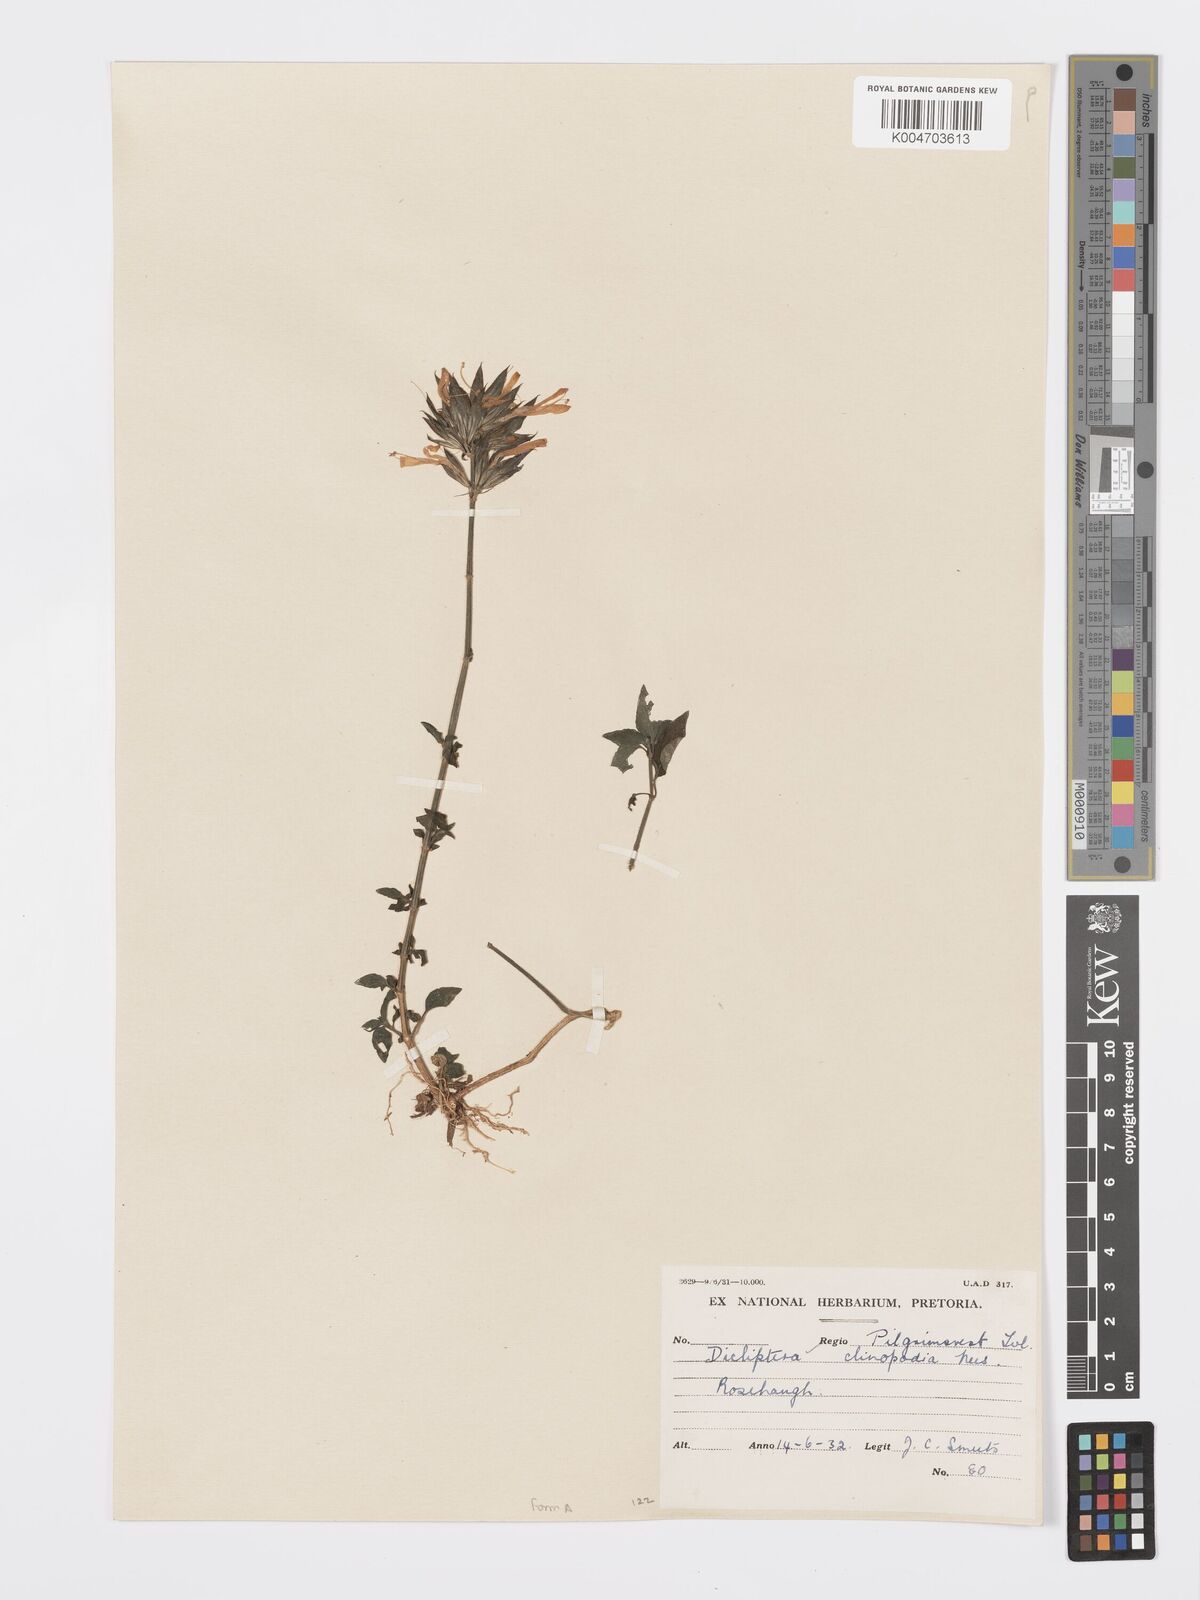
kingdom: Plantae
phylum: Tracheophyta
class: Magnoliopsida
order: Lamiales
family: Acanthaceae
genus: Dicliptera
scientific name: Dicliptera clinopodia
